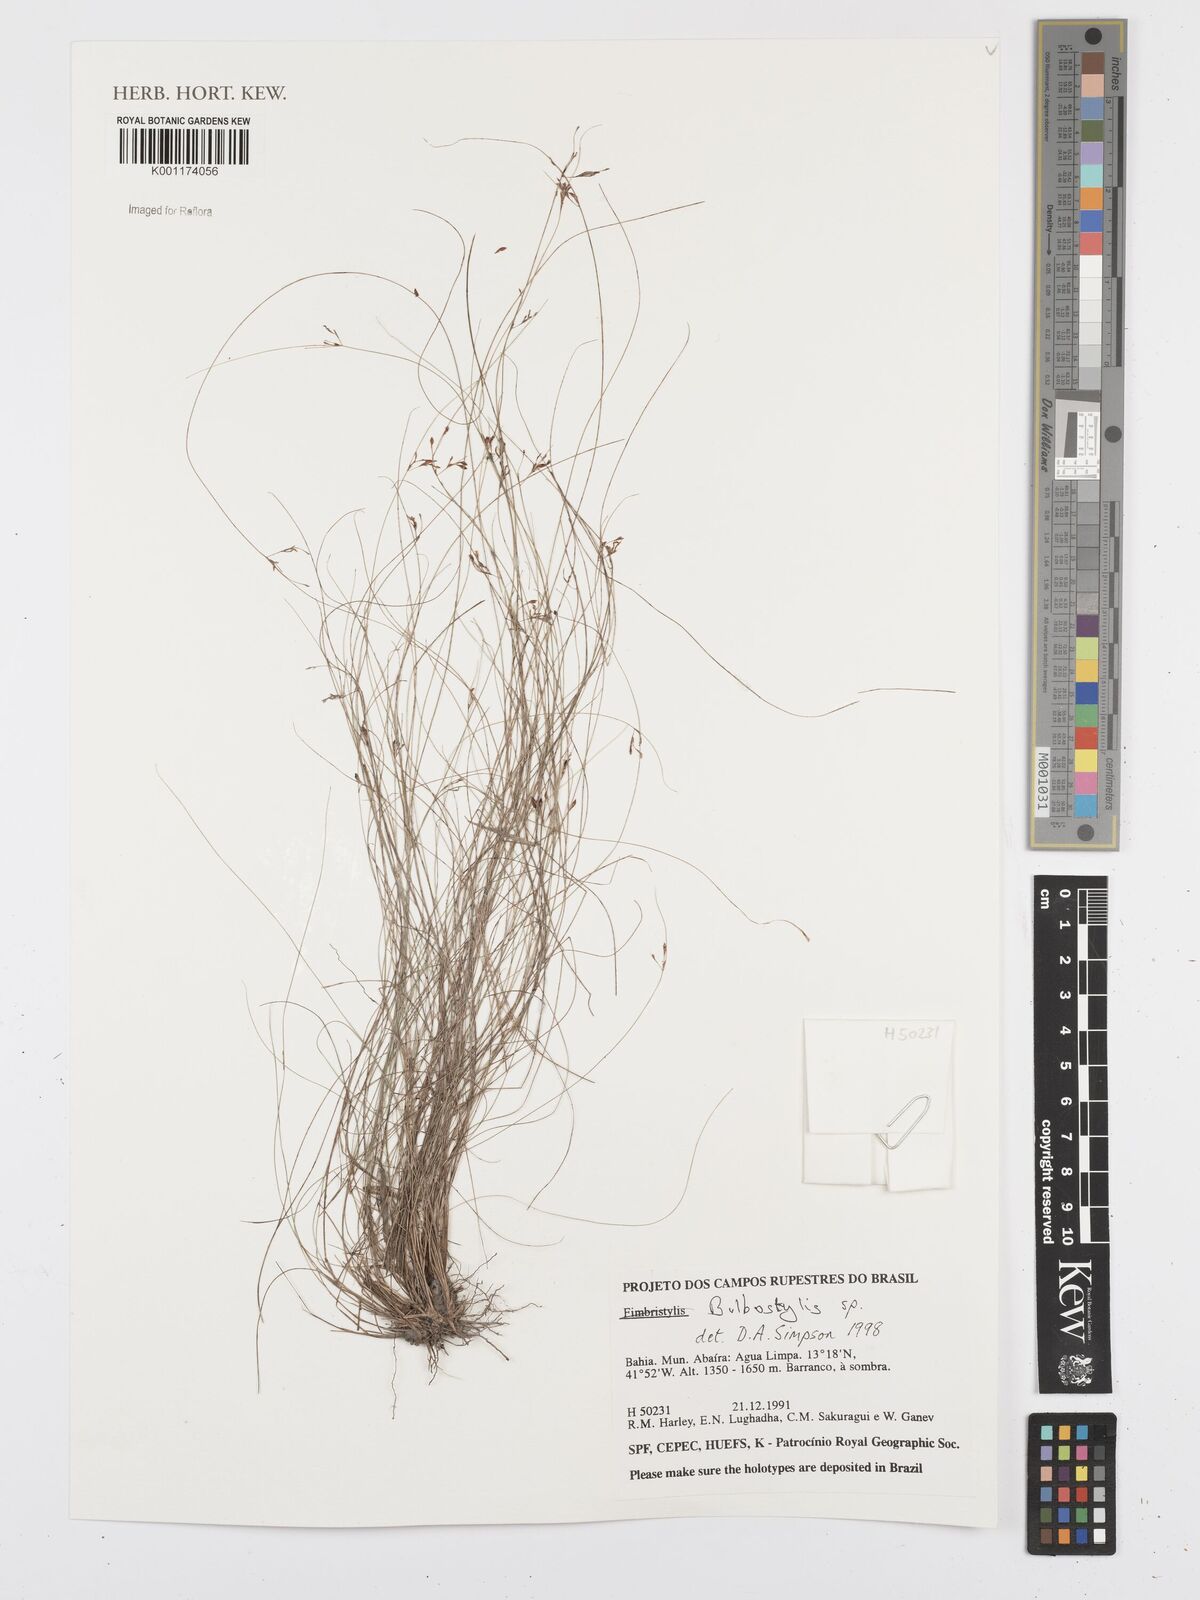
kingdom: Plantae
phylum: Tracheophyta
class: Liliopsida
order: Poales
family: Cyperaceae
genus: Bulbostylis
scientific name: Bulbostylis
